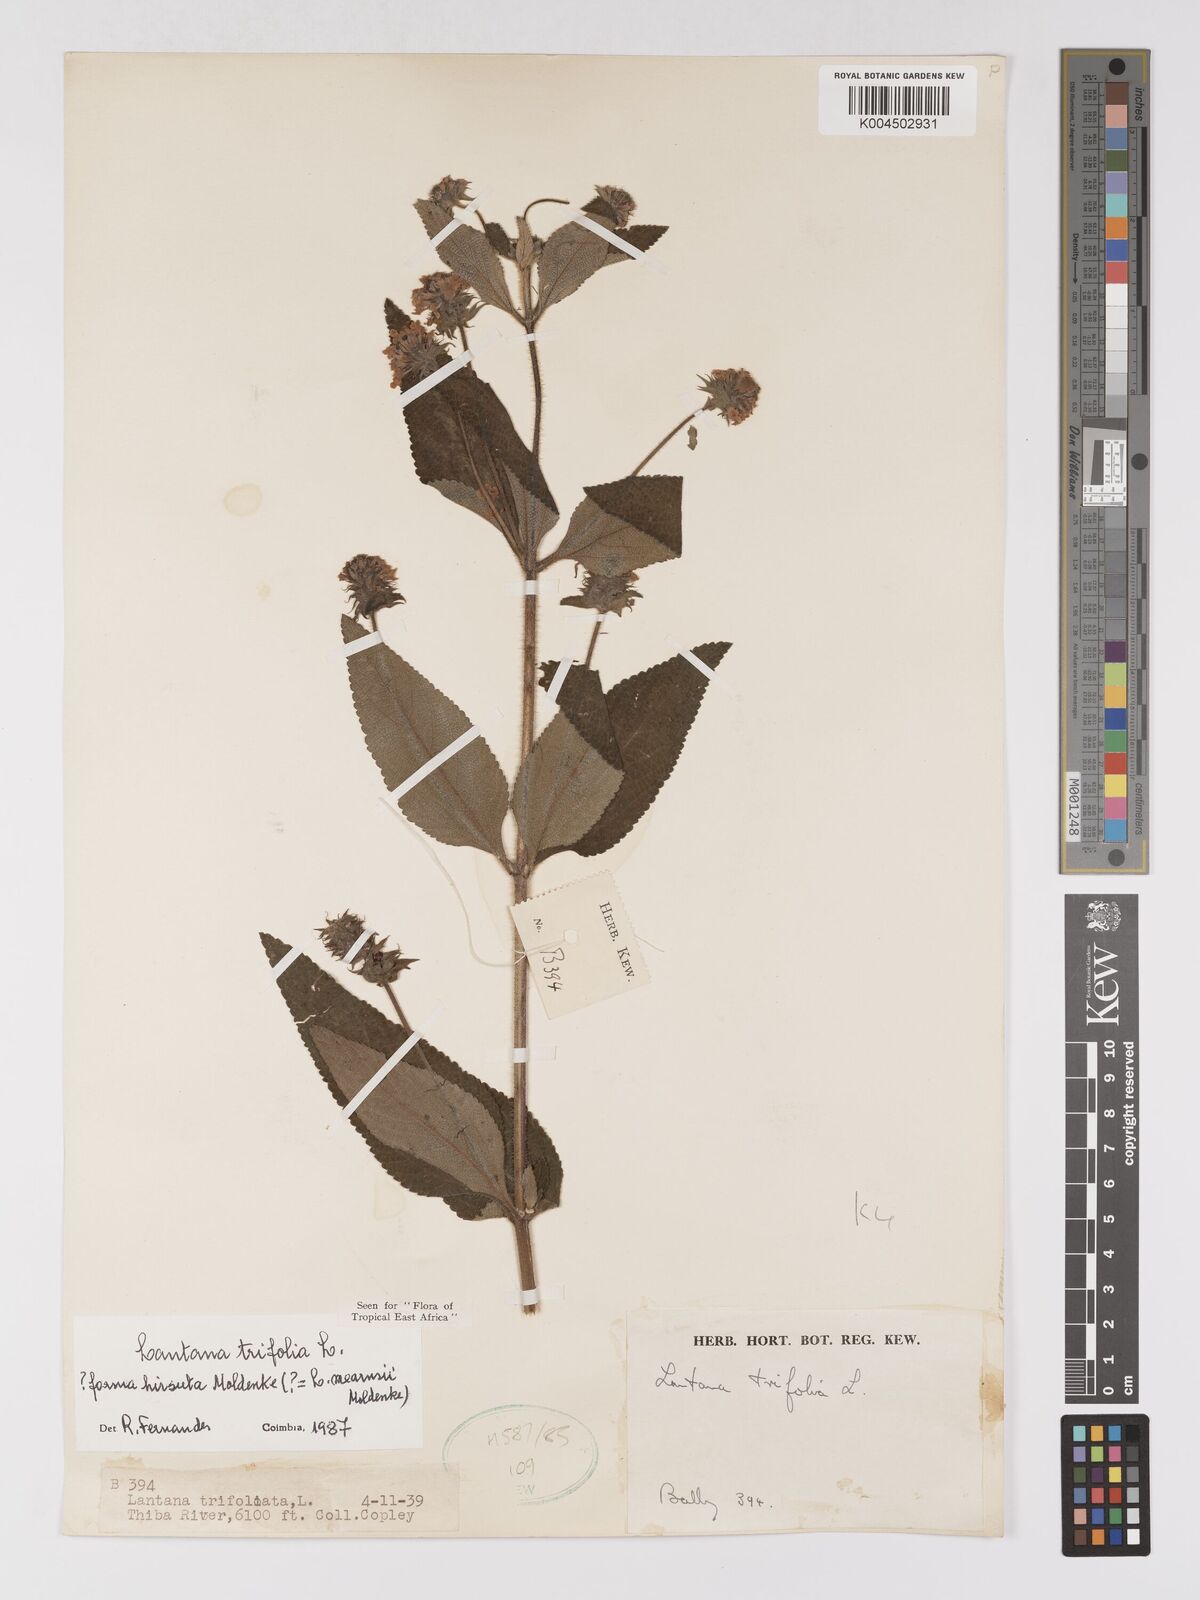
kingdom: Plantae
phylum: Tracheophyta
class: Magnoliopsida
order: Lamiales
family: Verbenaceae
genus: Lantana
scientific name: Lantana trifolia
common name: Sweet-sage
